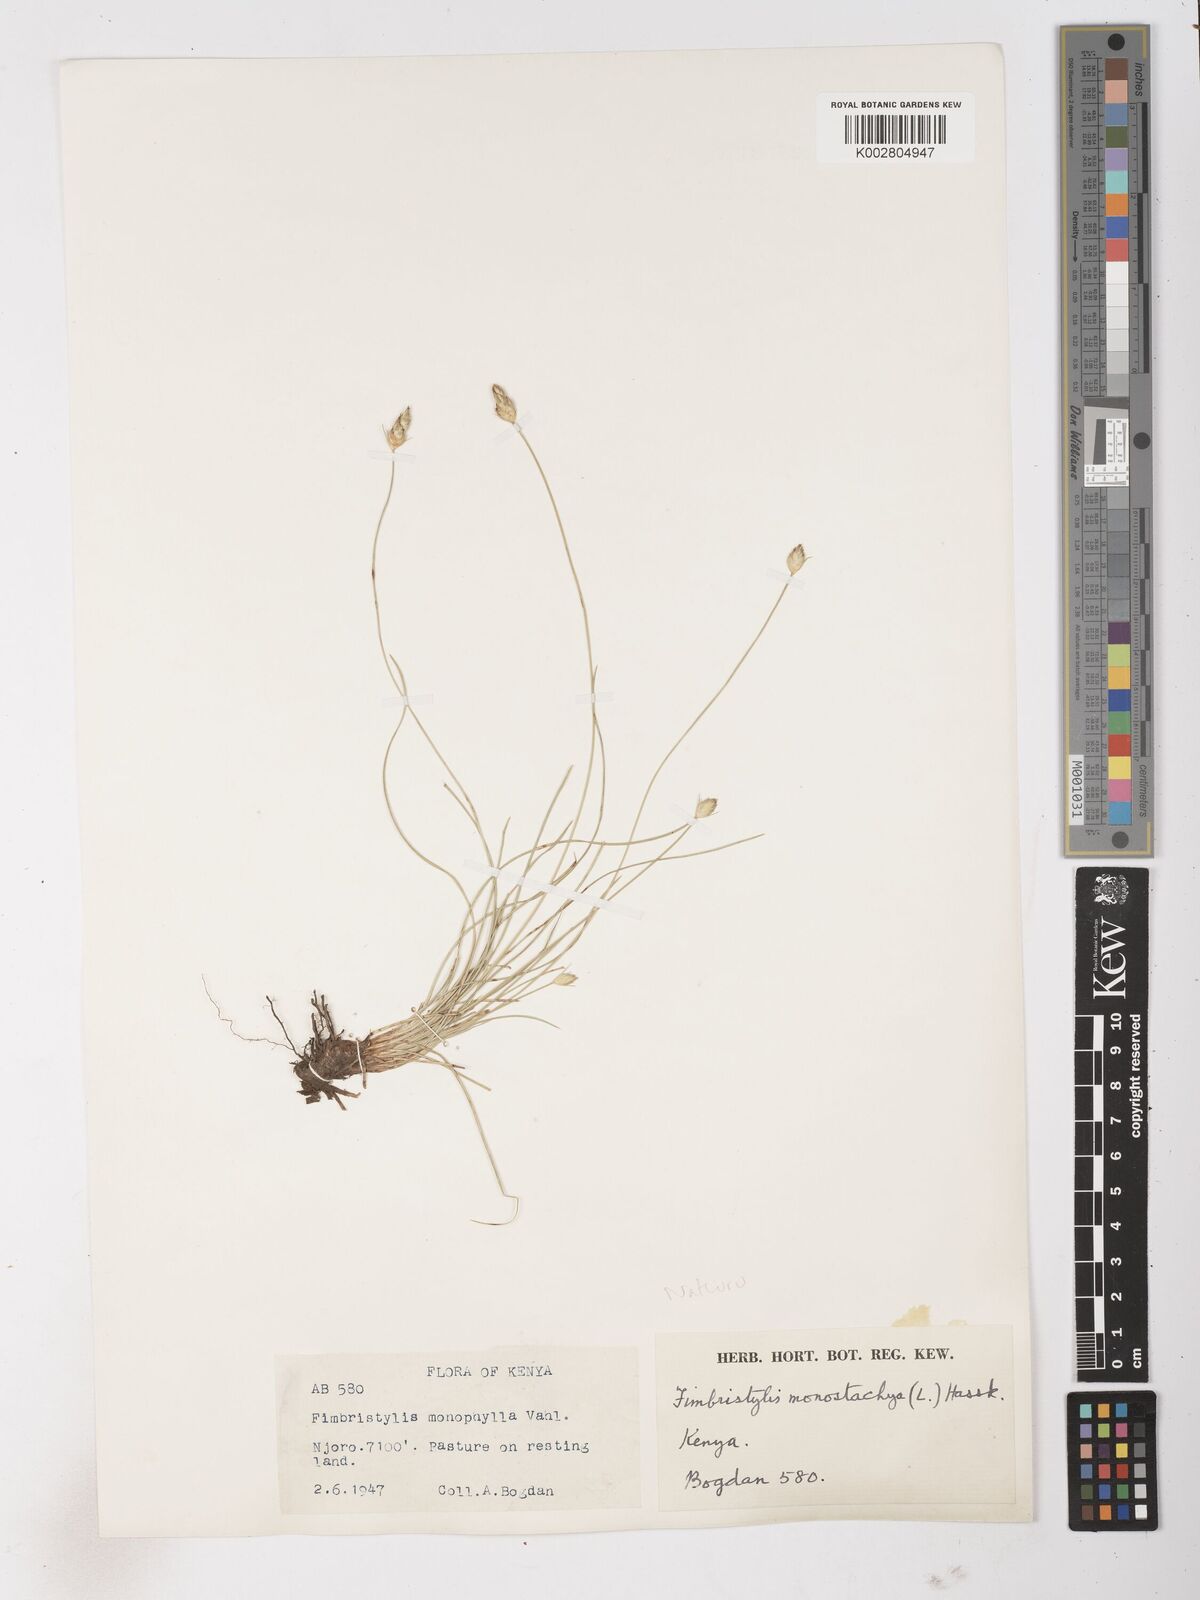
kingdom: Plantae
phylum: Tracheophyta
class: Liliopsida
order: Poales
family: Cyperaceae
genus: Abildgaardia
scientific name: Abildgaardia ovata
